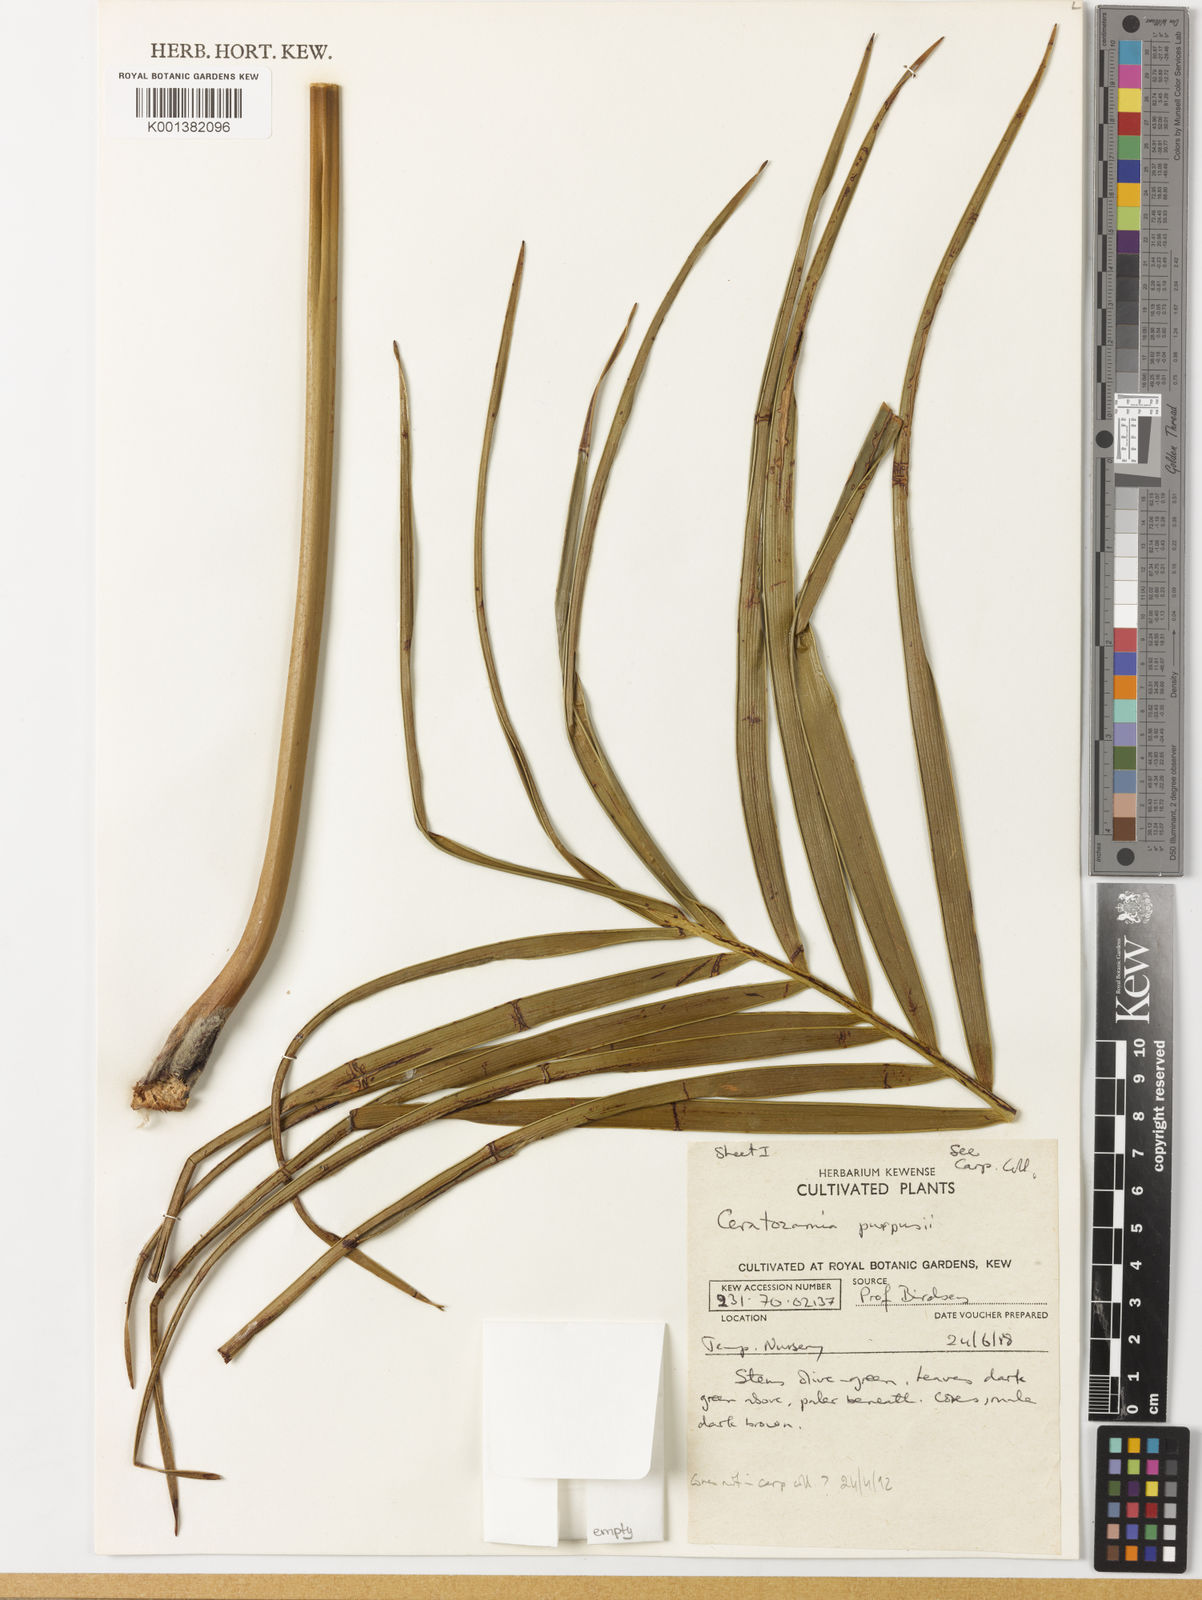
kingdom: Plantae
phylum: Tracheophyta
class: Cycadopsida
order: Cycadales
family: Zamiaceae
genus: Ceratozamia
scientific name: Ceratozamia
